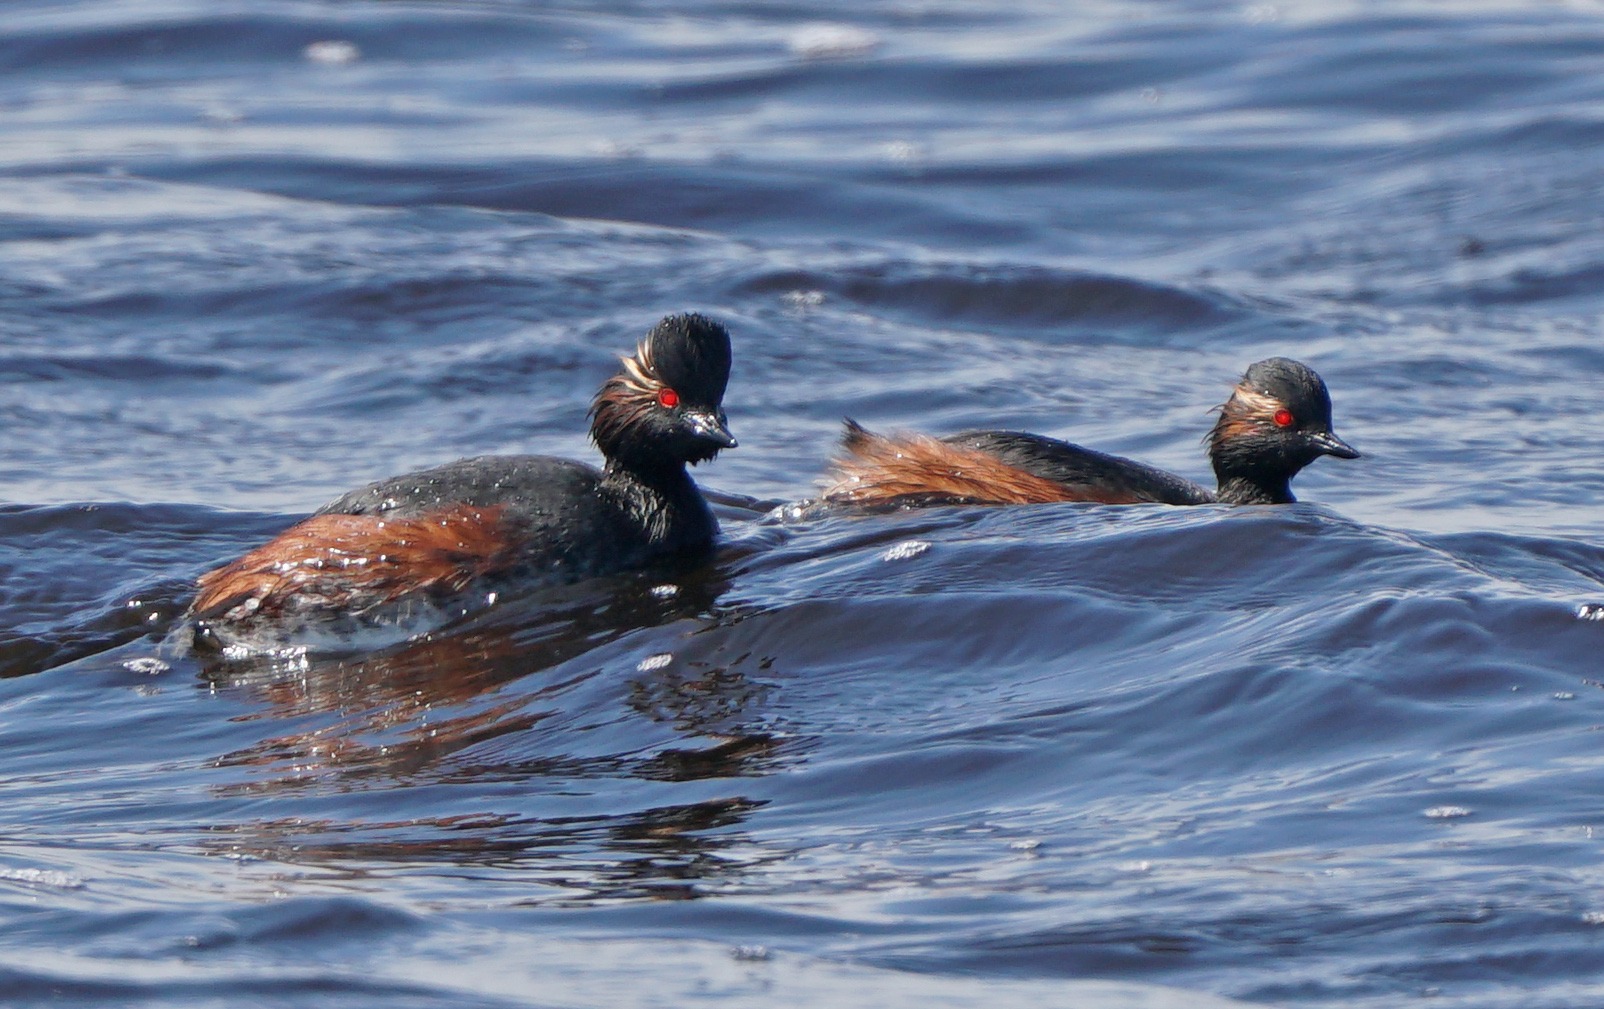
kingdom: Animalia
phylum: Chordata
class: Aves
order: Podicipediformes
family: Podicipedidae
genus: Podiceps
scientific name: Podiceps nigricollis
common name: Sorthalset lappedykker
